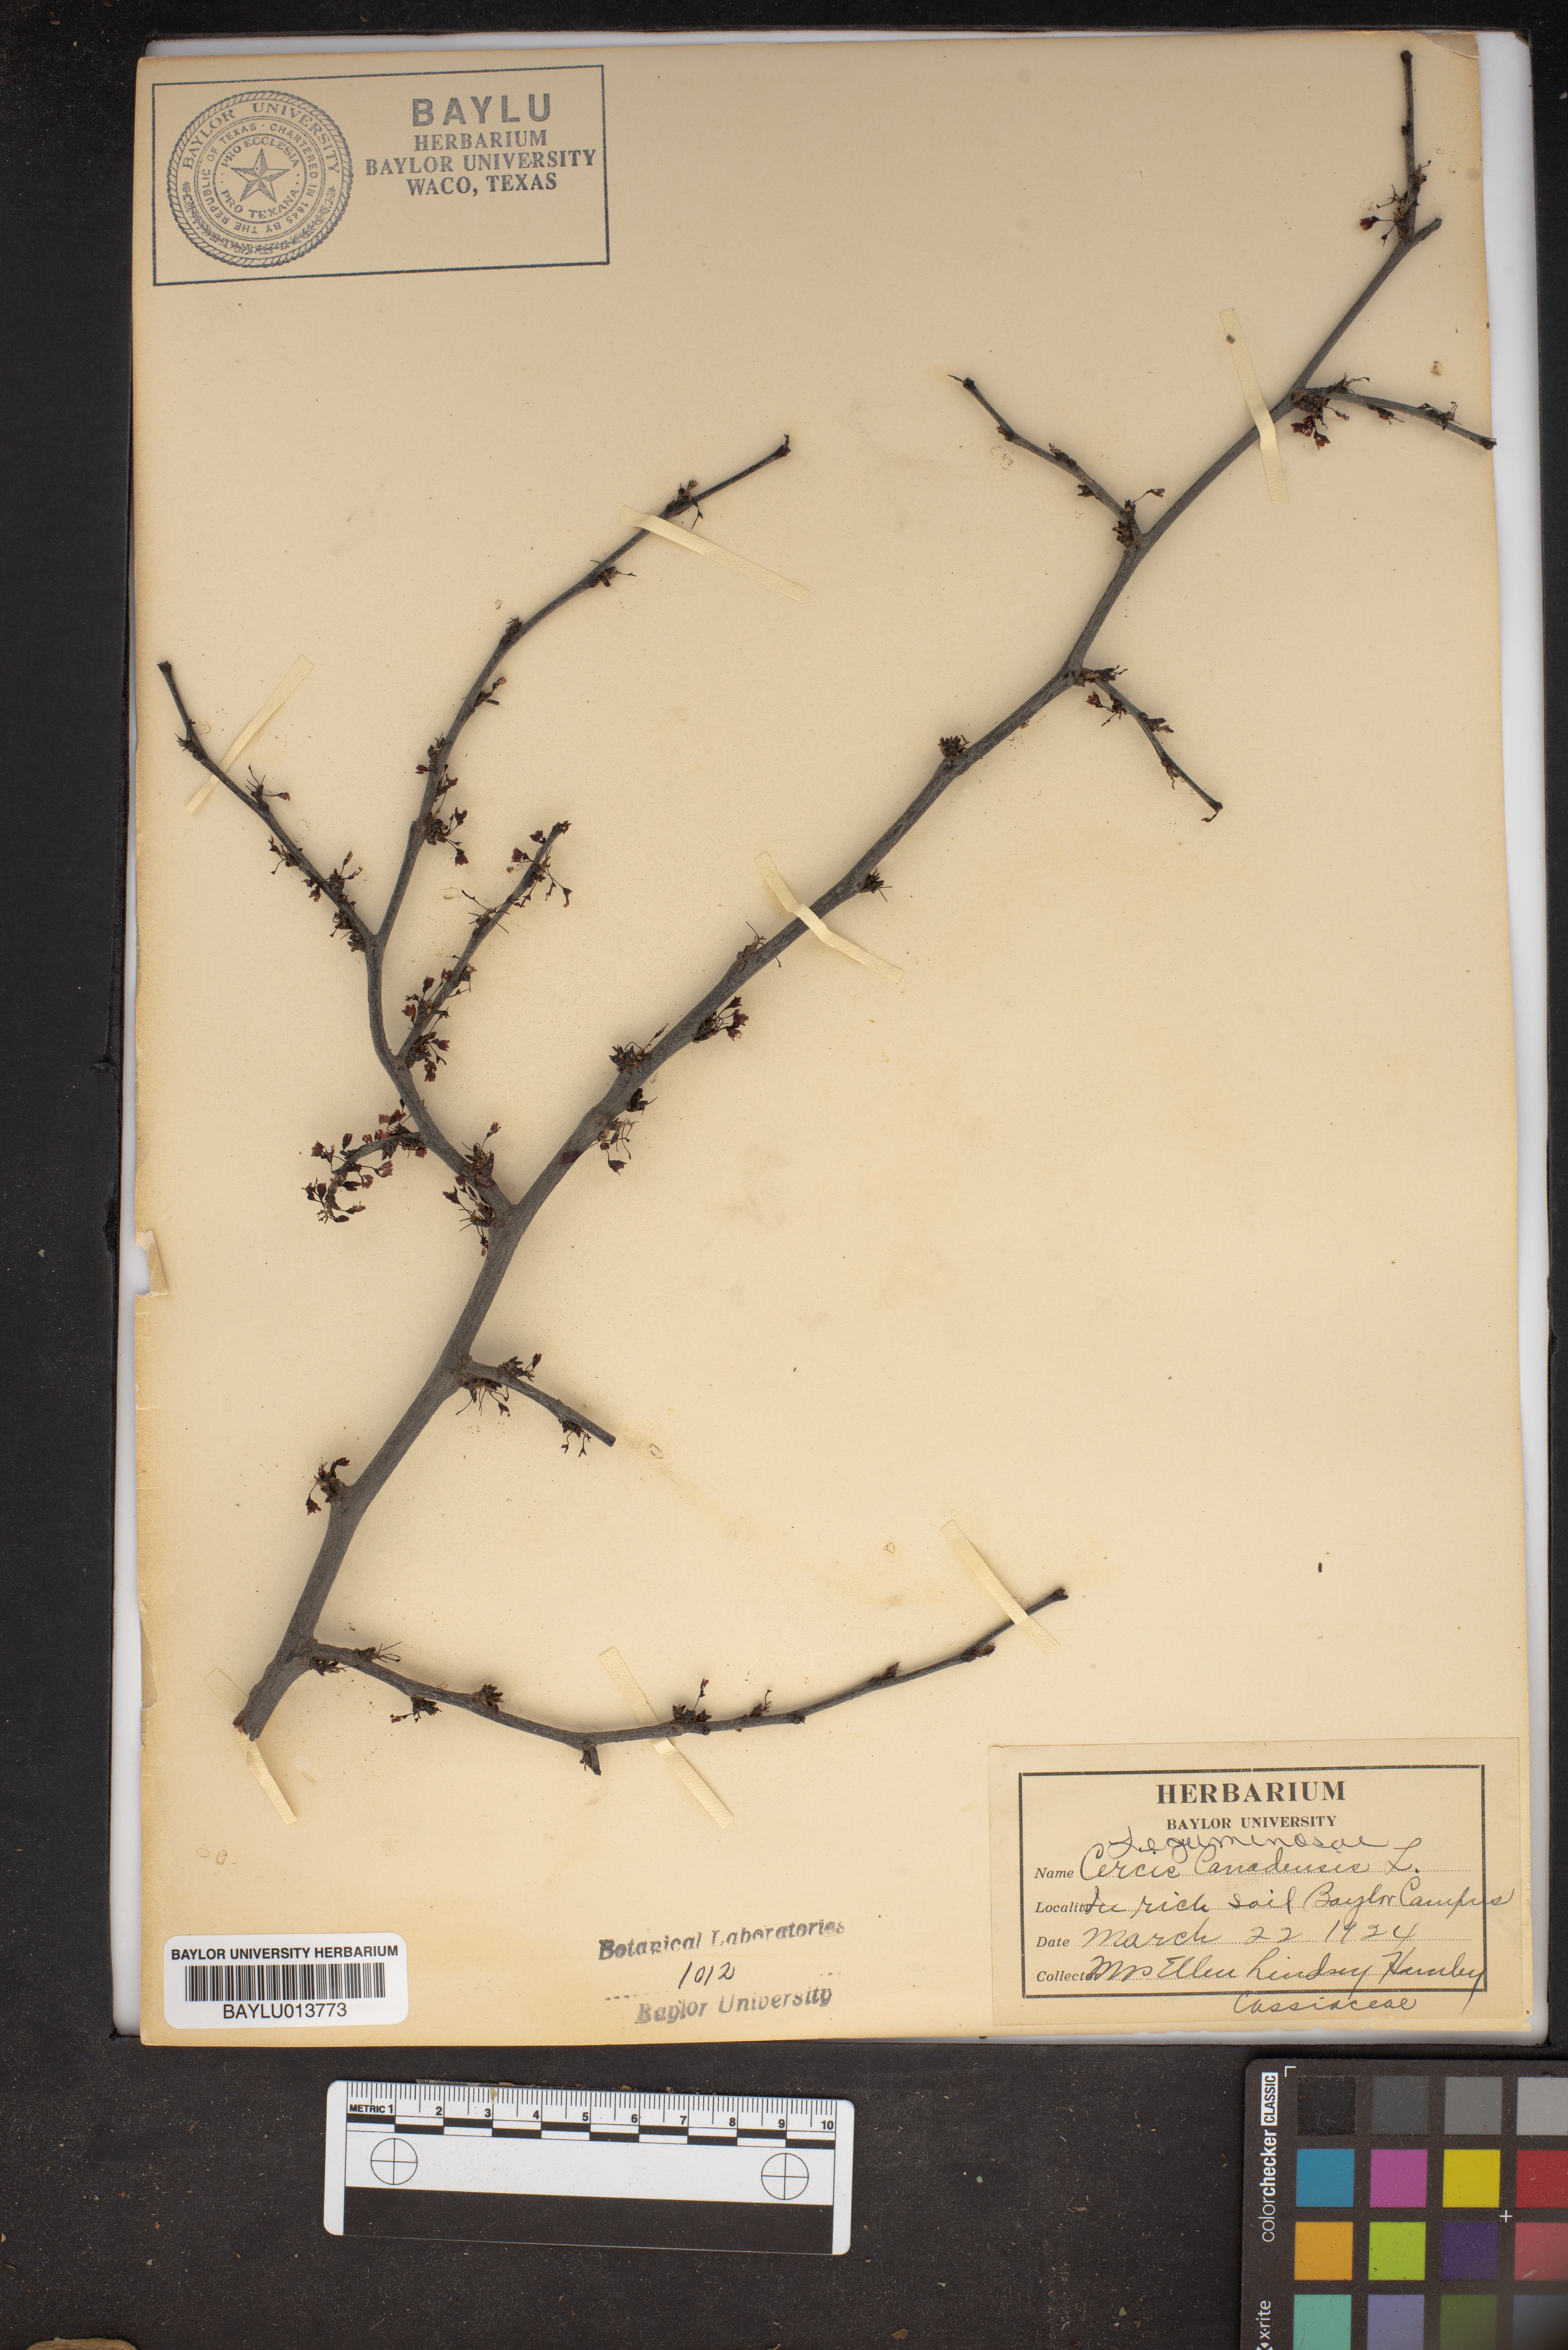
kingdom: Plantae
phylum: Tracheophyta
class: Magnoliopsida
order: Fabales
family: Fabaceae
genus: Cercis
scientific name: Cercis canadensis
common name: Eastern redbud
